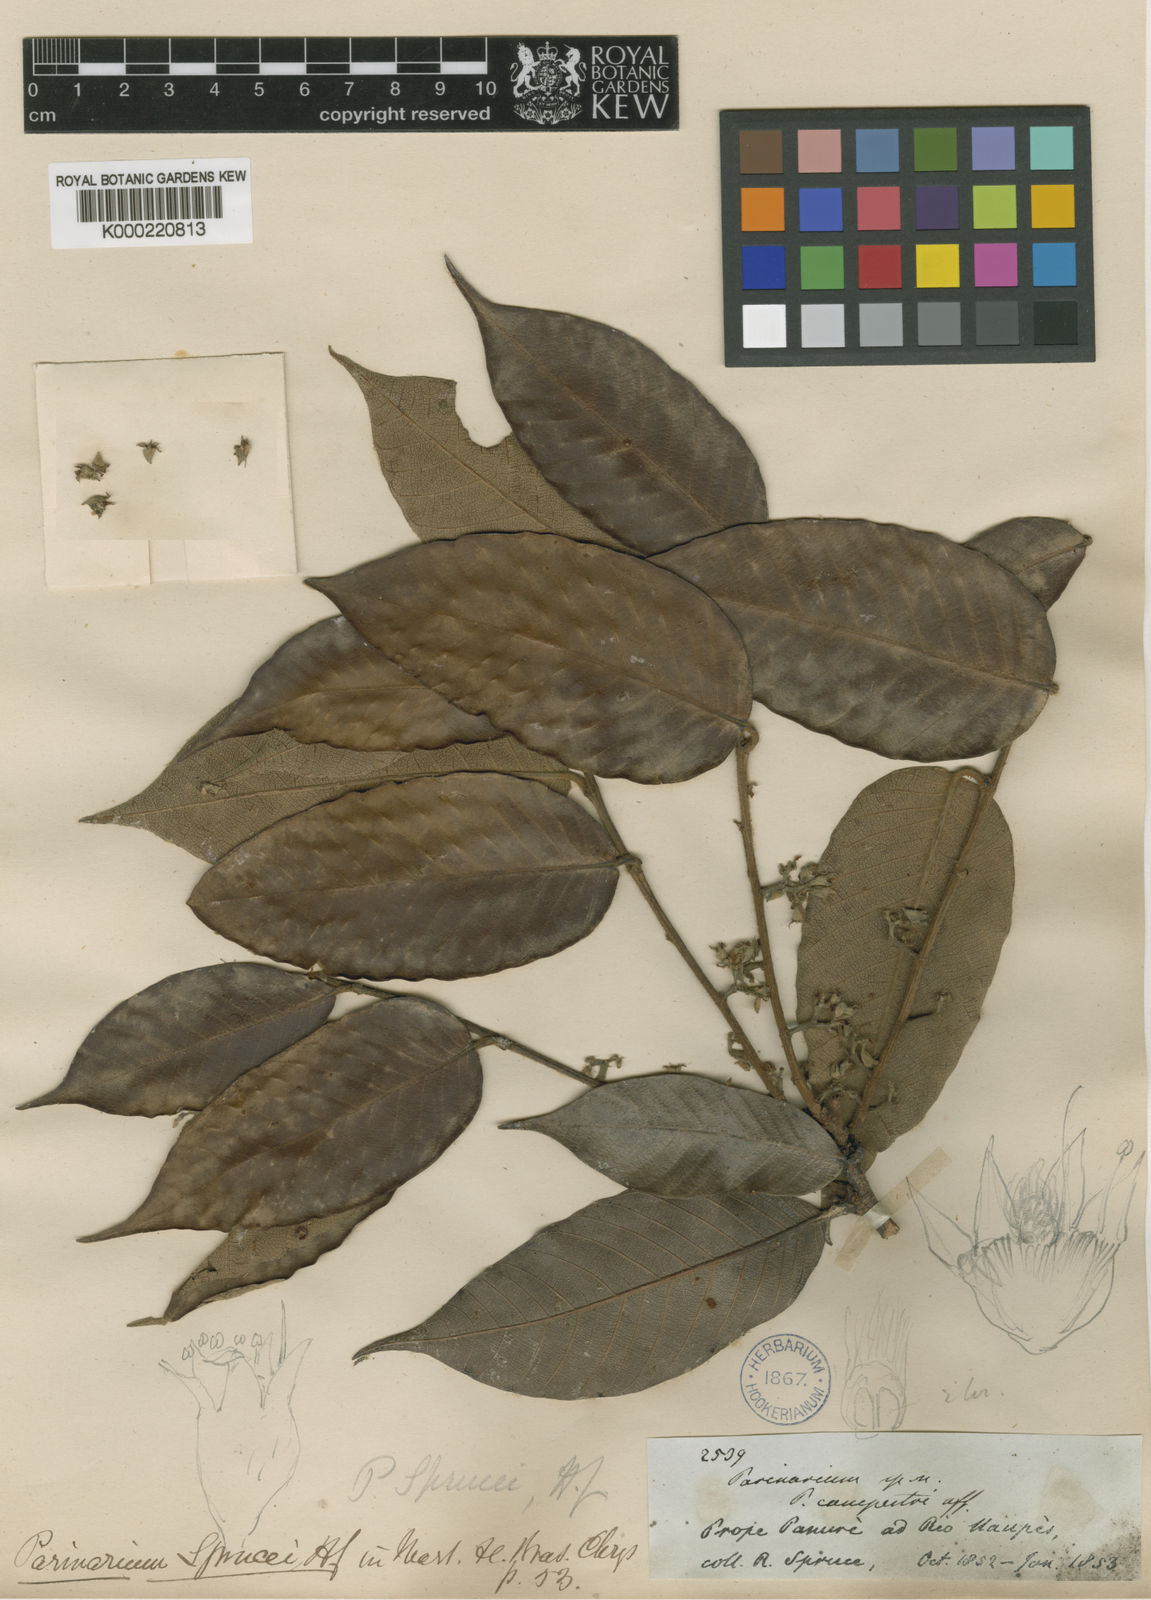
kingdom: Plantae
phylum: Tracheophyta
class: Magnoliopsida
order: Malpighiales
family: Chrysobalanaceae
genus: Parinari
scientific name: Parinari sprucei
